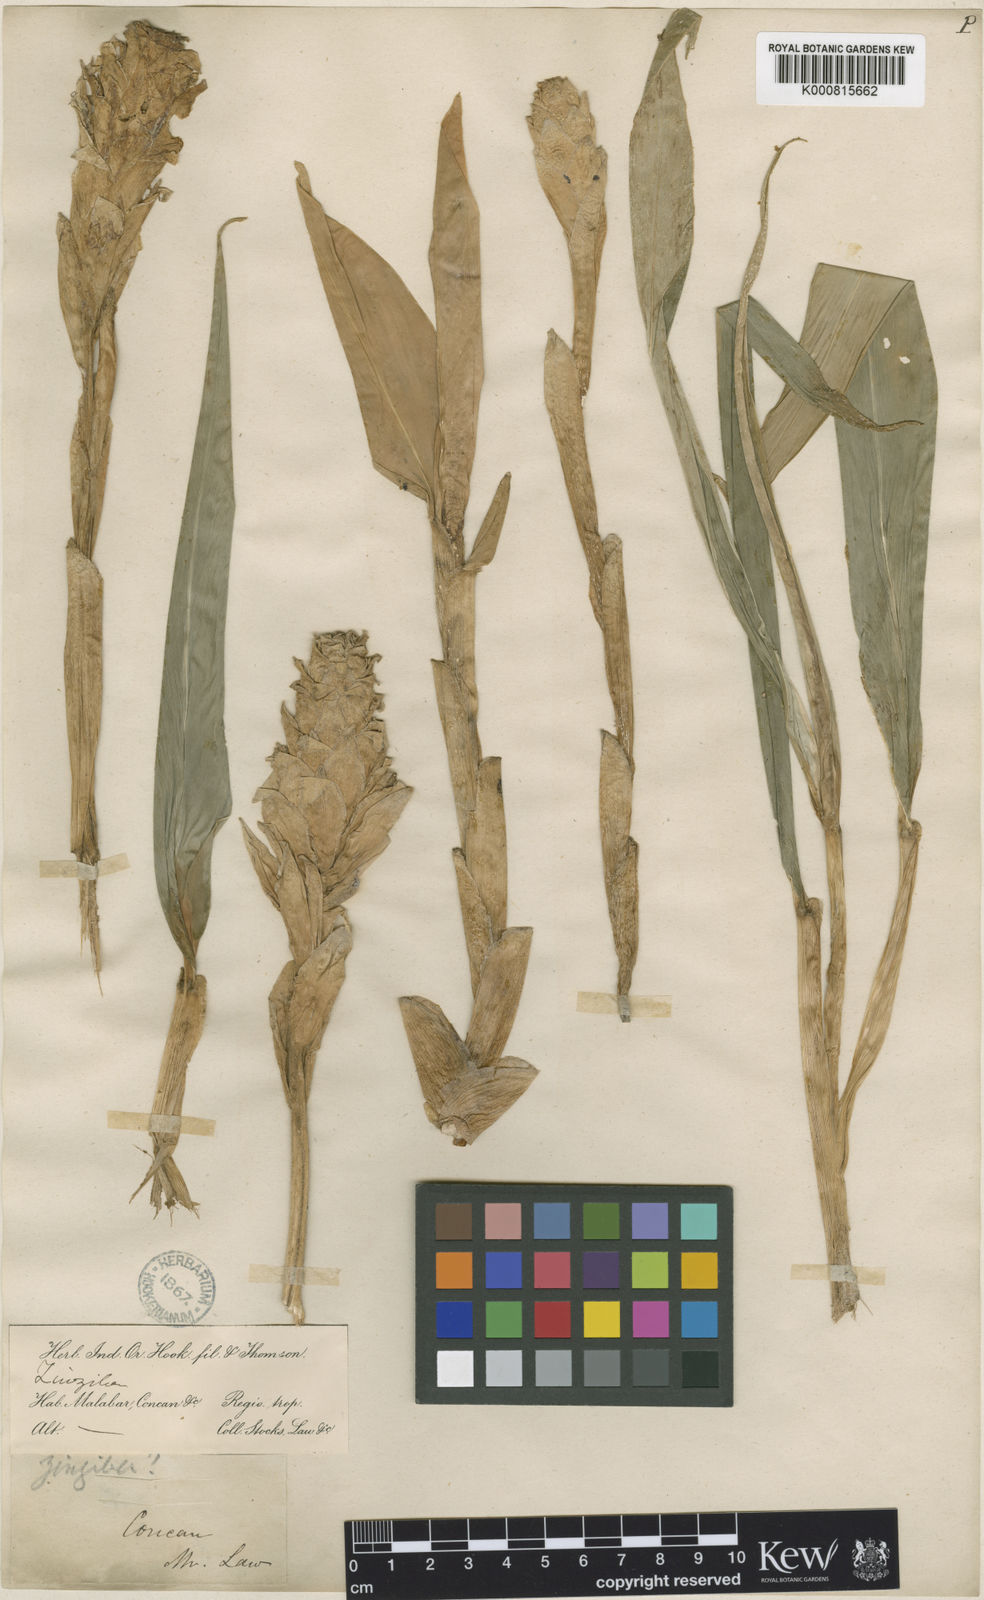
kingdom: Plantae
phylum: Tracheophyta
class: Liliopsida
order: Zingiberales
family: Zingiberaceae
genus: Zingiber
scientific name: Zingiber neesanum
